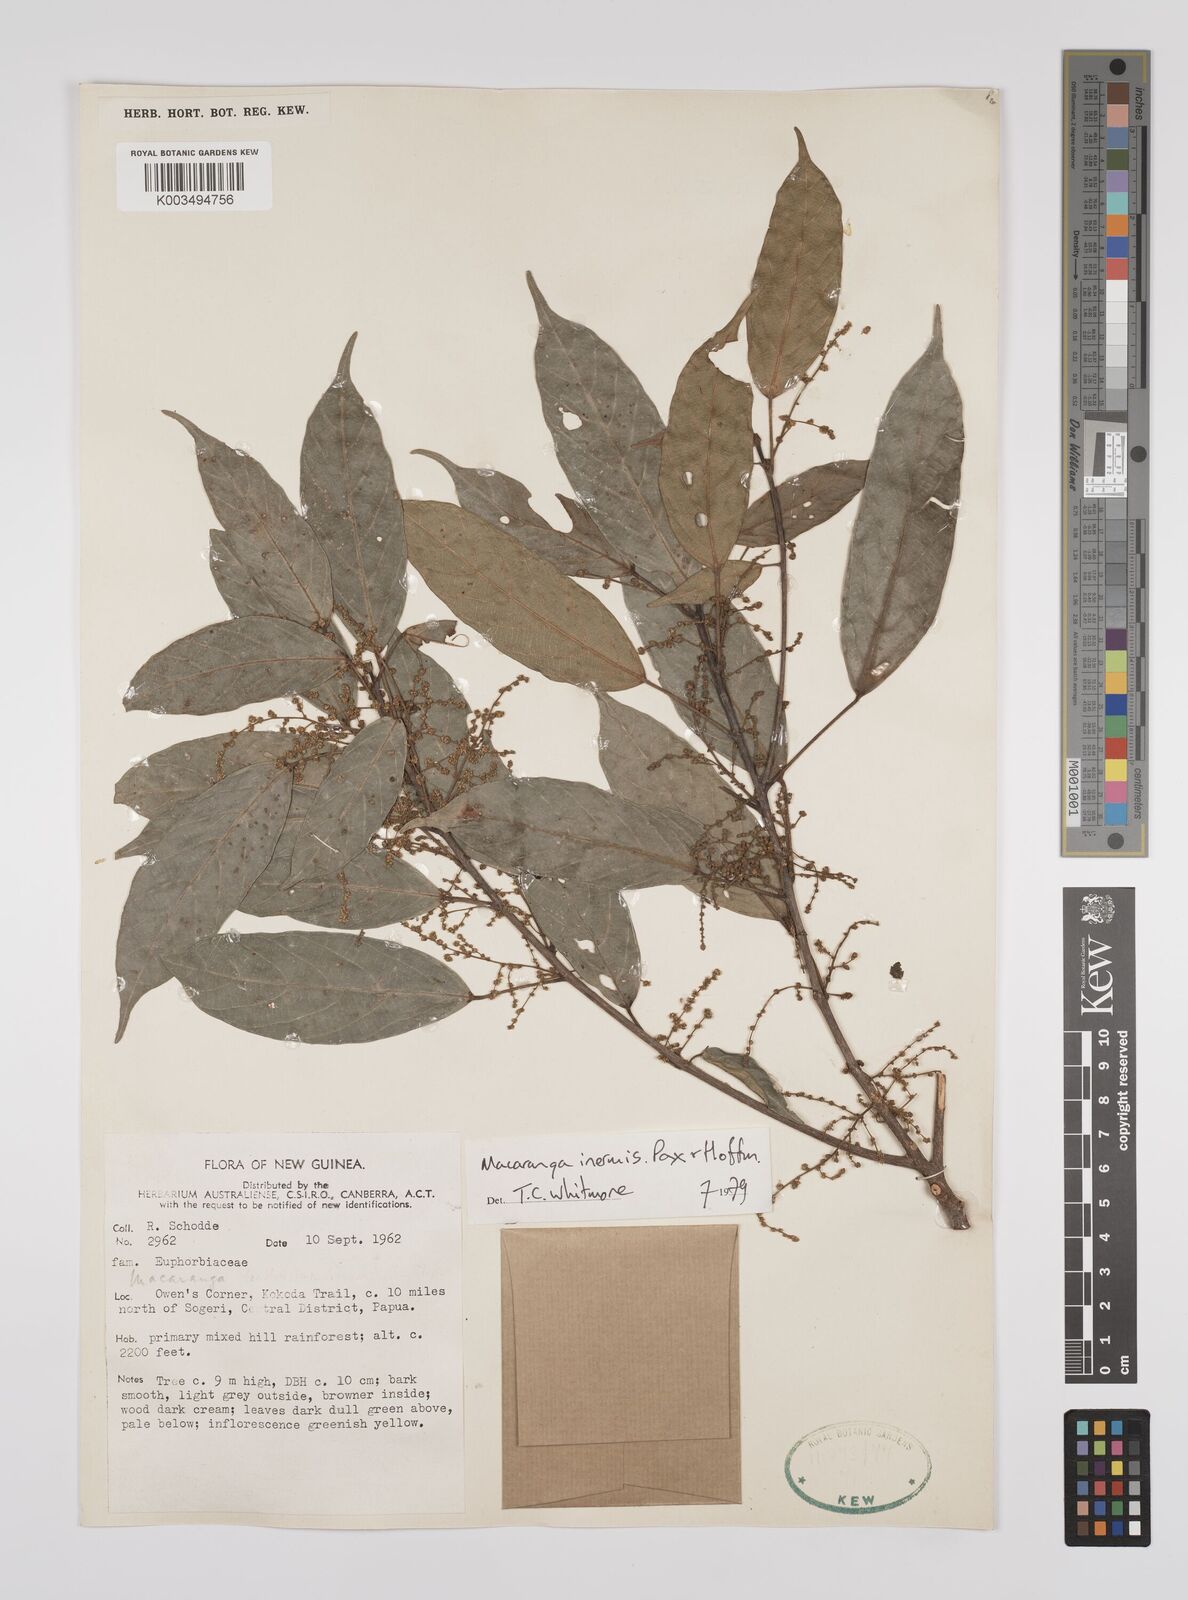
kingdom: Plantae
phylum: Tracheophyta
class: Magnoliopsida
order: Malpighiales
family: Euphorbiaceae
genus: Macaranga
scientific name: Macaranga inermis
